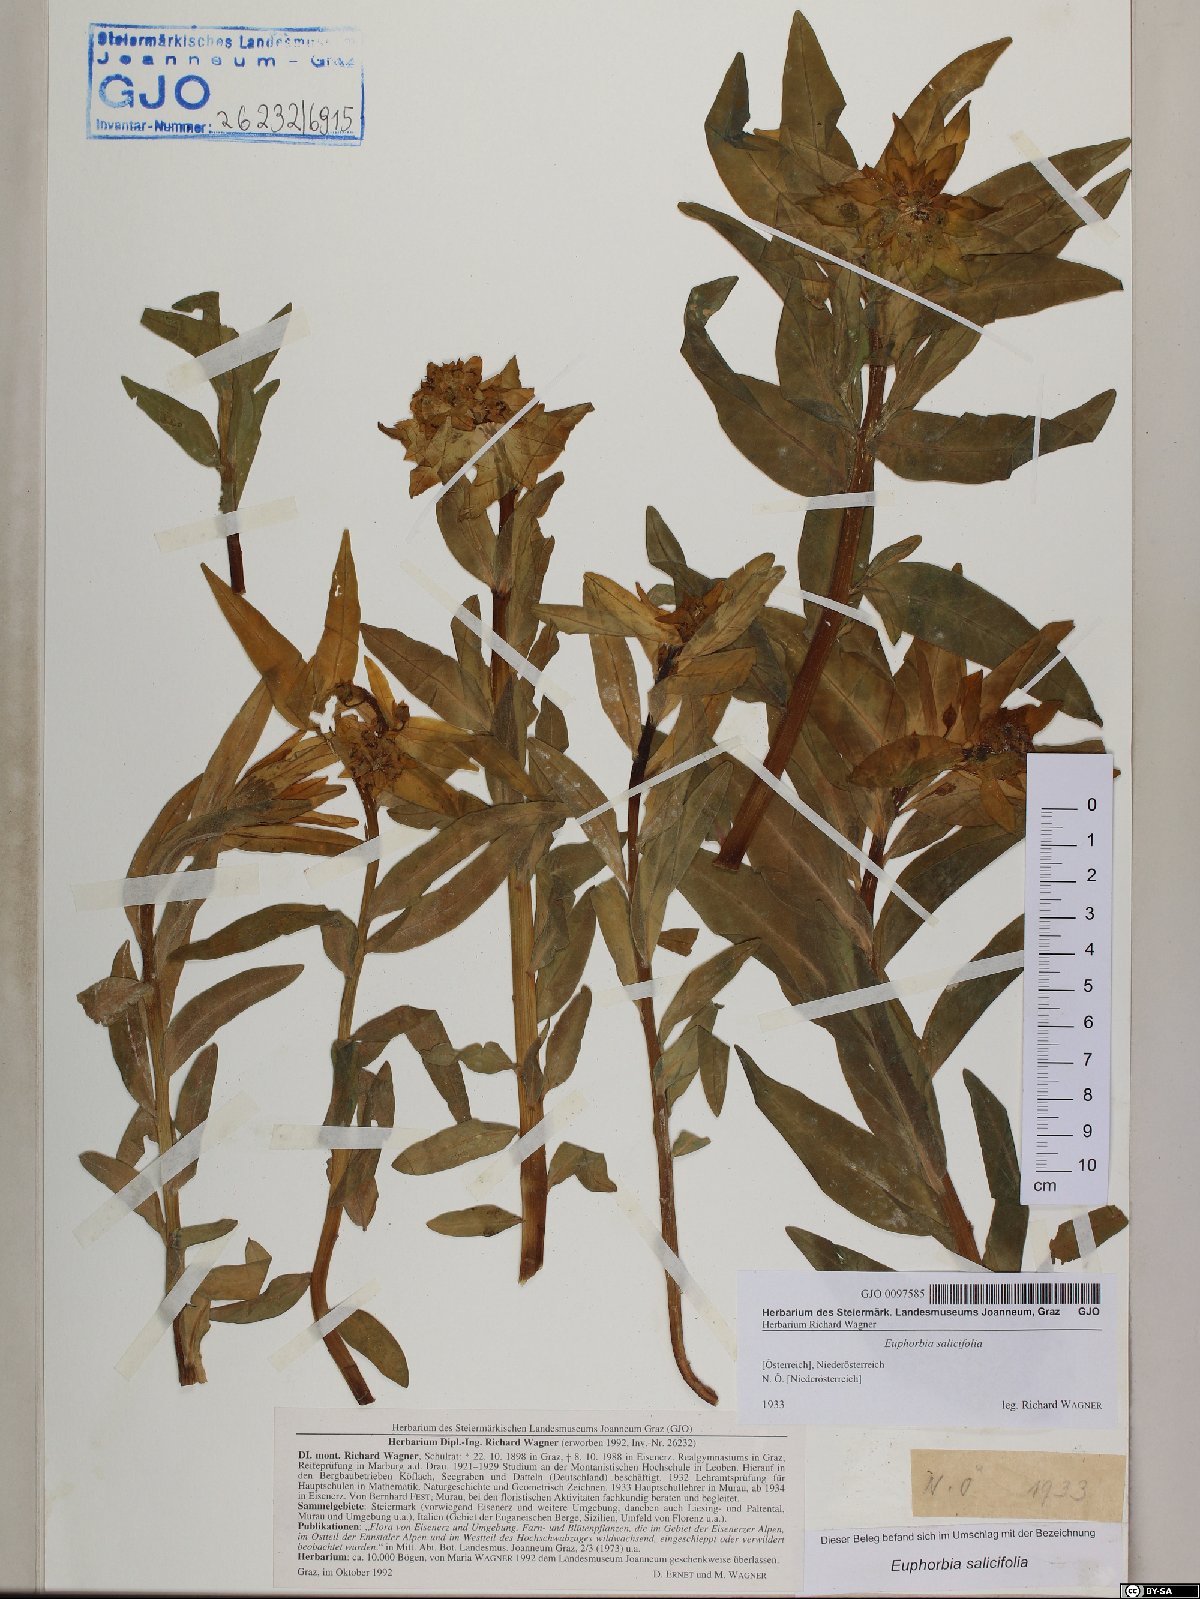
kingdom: Plantae
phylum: Tracheophyta
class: Magnoliopsida
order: Malpighiales
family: Euphorbiaceae
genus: Euphorbia
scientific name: Euphorbia salicifolia
